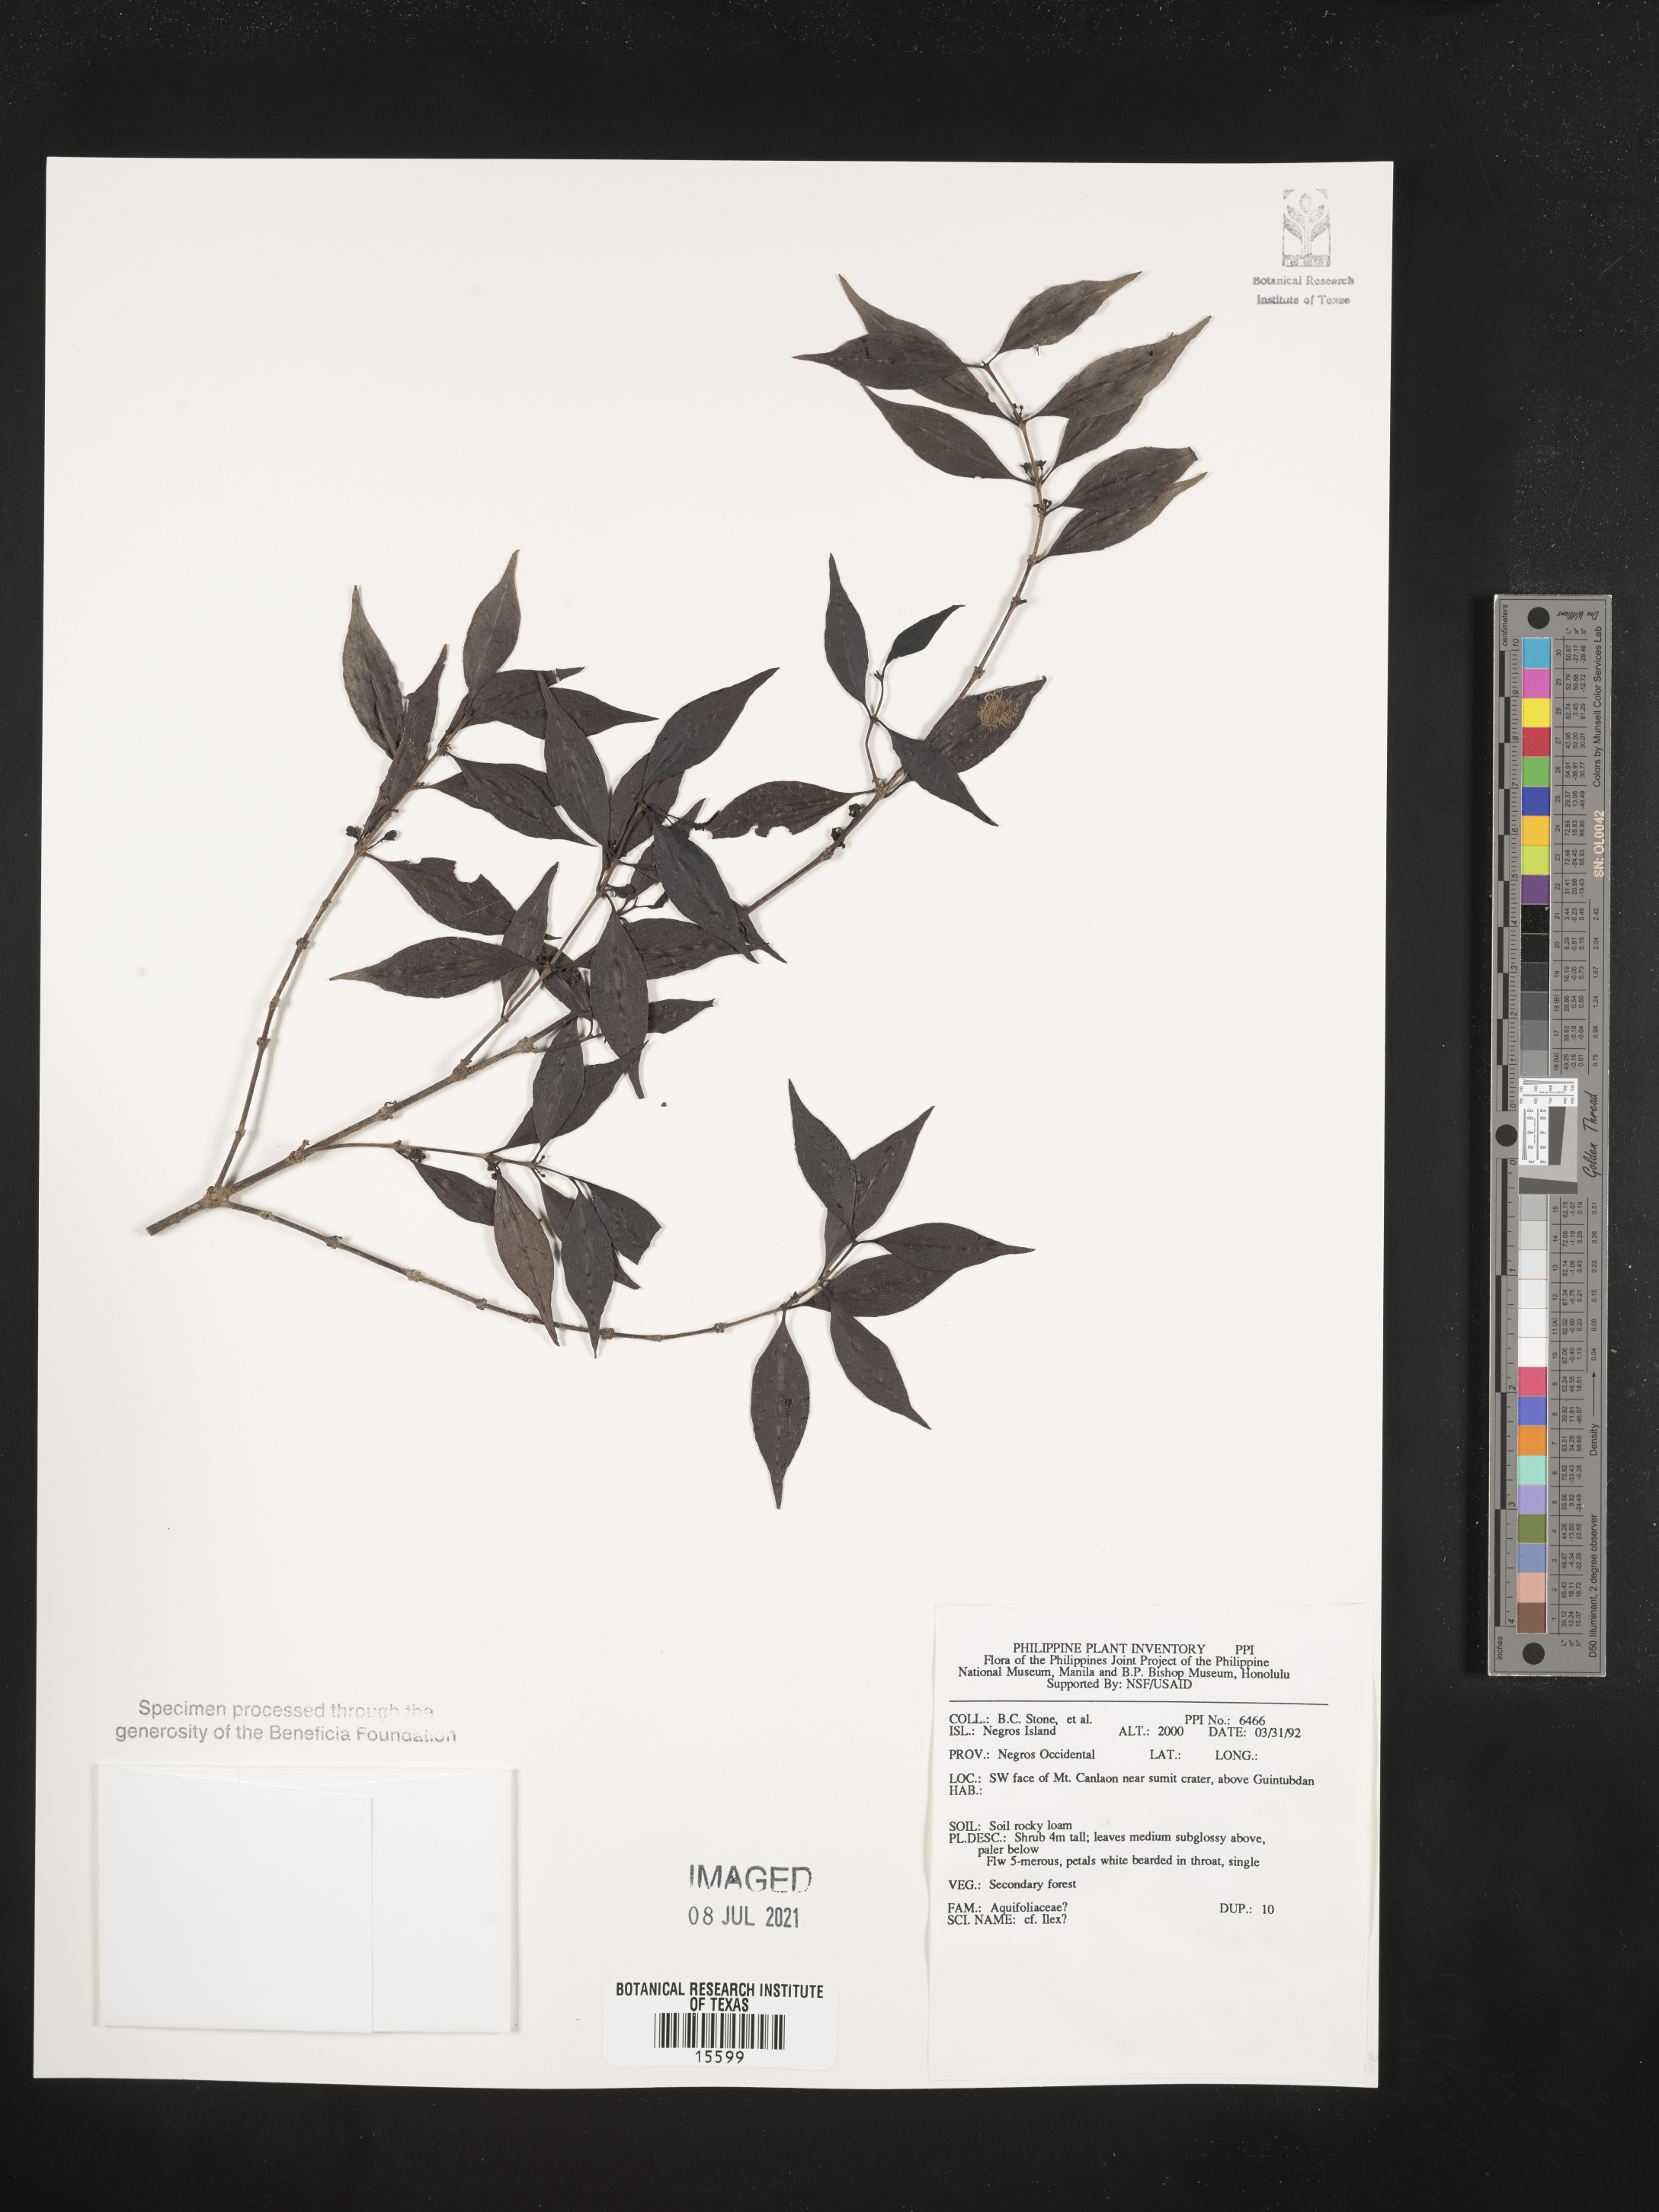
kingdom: Plantae
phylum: Tracheophyta
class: Magnoliopsida
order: Aquifoliales
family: Aquifoliaceae
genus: Ilex
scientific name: Ilex
